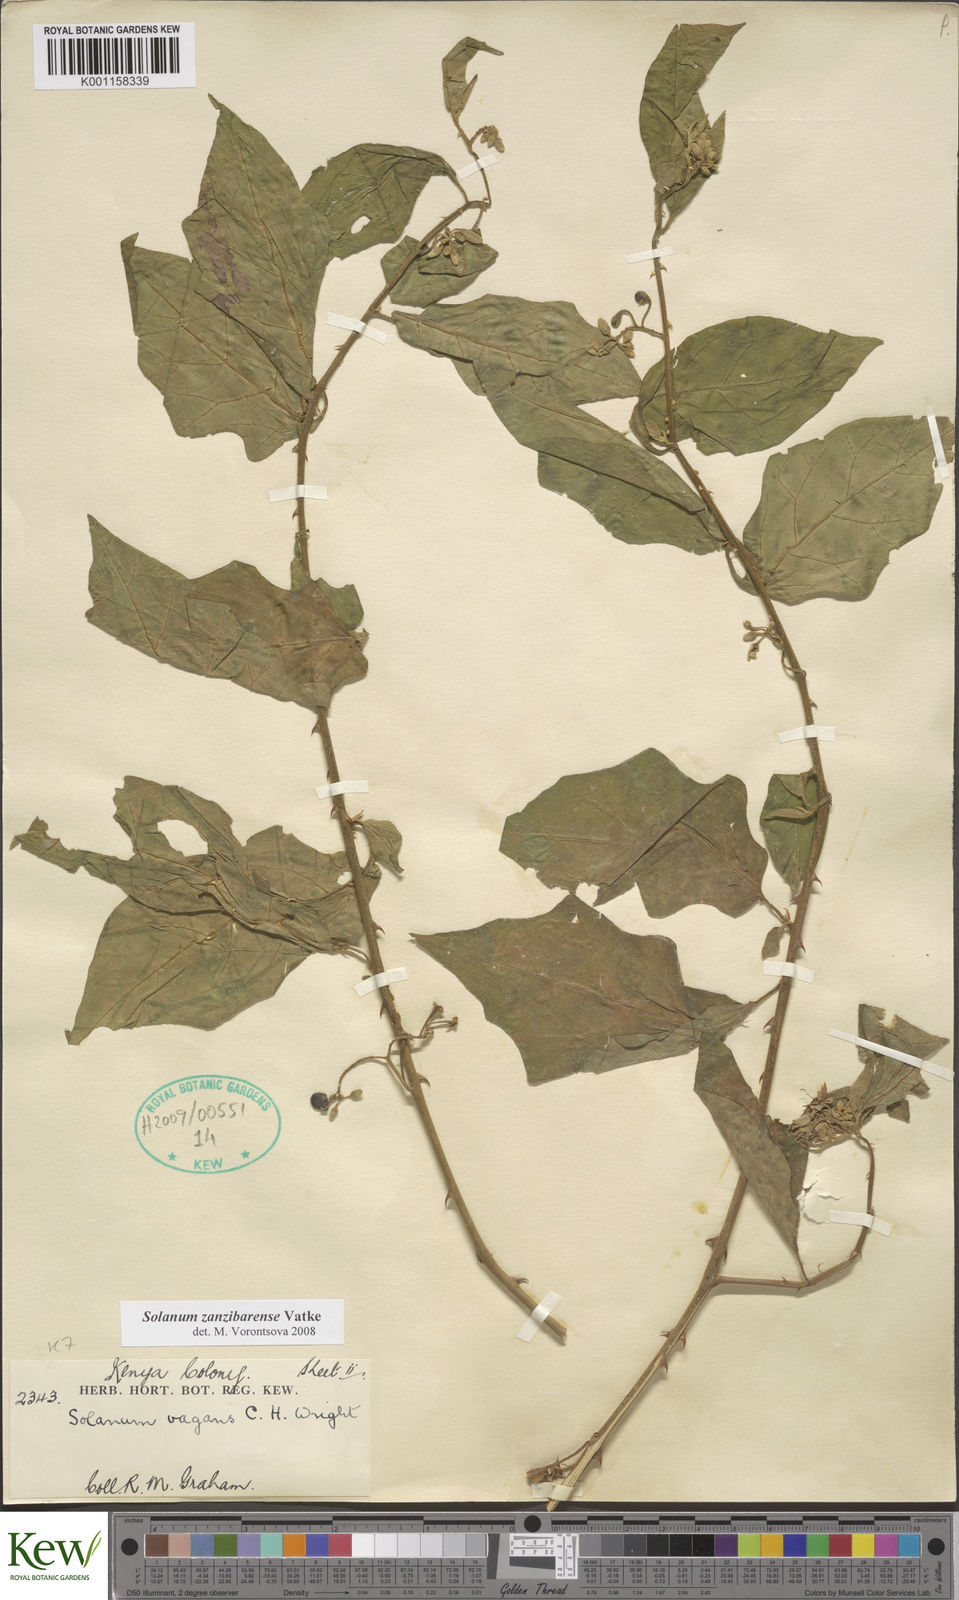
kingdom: Plantae
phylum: Tracheophyta
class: Magnoliopsida
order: Solanales
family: Solanaceae
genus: Solanum
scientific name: Solanum zanzibarense
